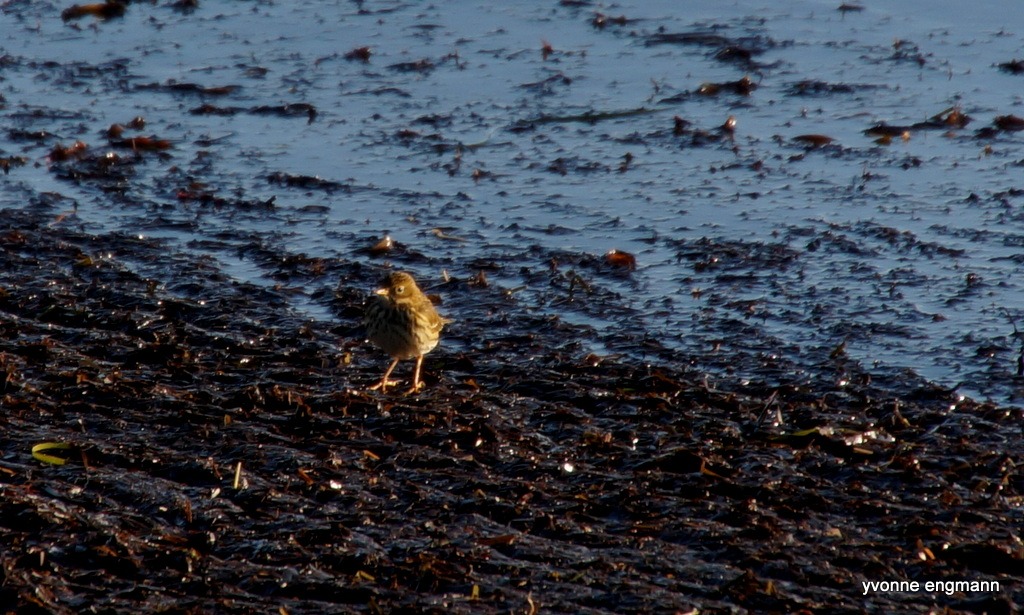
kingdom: Animalia
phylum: Chordata
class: Aves
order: Passeriformes
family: Motacillidae
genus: Anthus
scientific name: Anthus pratensis
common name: Engpiber
